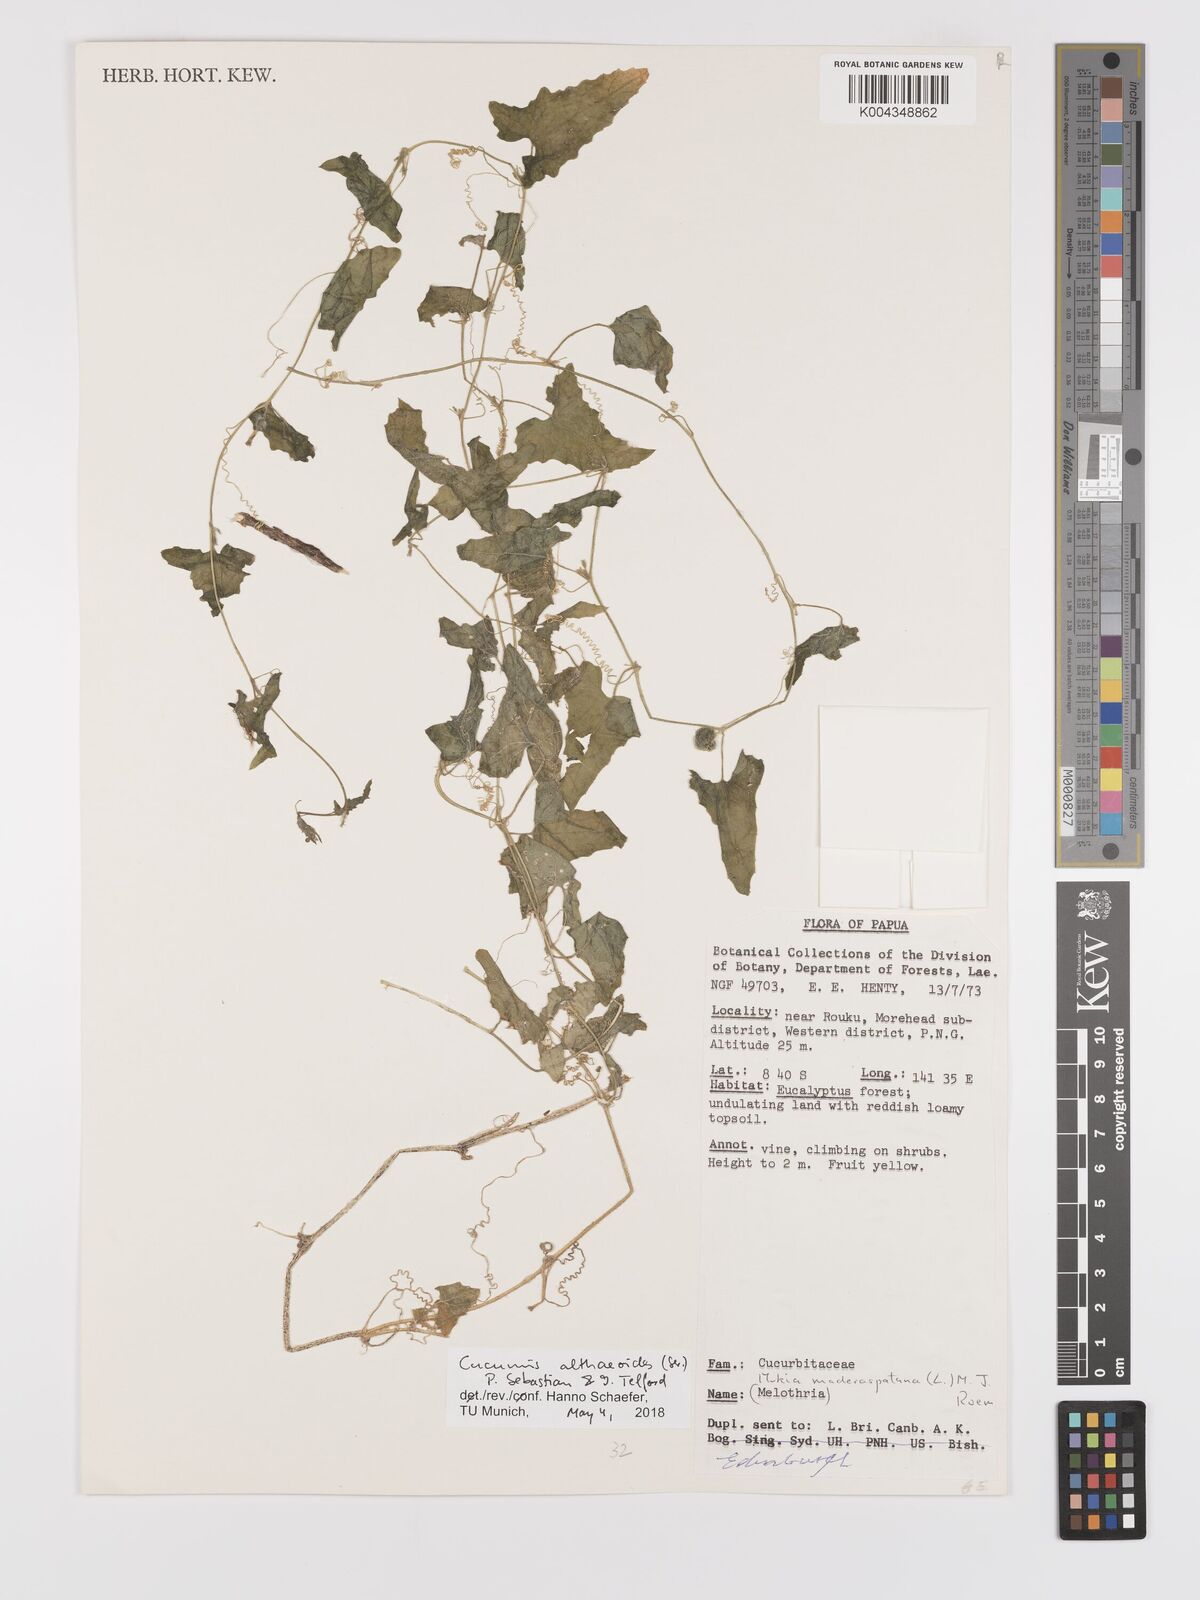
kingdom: Plantae
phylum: Tracheophyta
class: Magnoliopsida
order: Cucurbitales
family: Cucurbitaceae
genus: Cucumis
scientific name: Cucumis maderaspatanus
